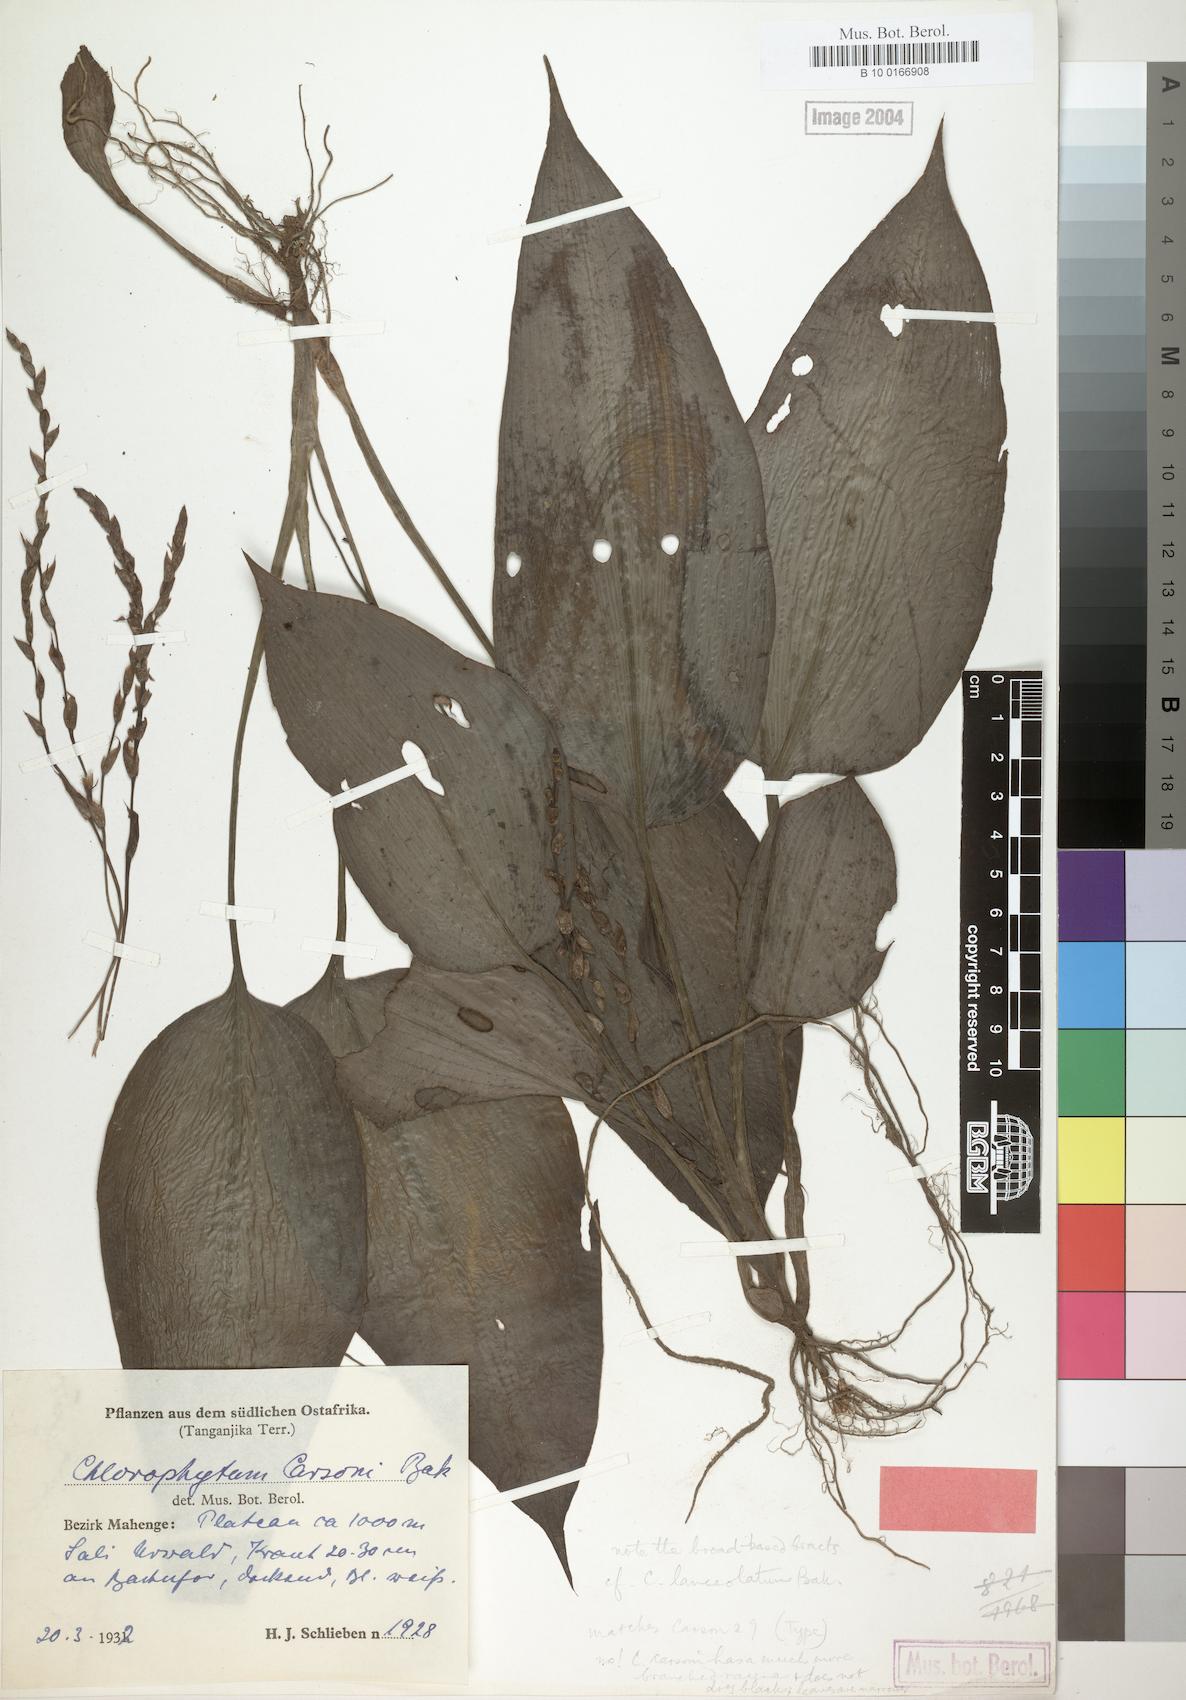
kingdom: Plantae
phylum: Tracheophyta
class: Liliopsida
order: Asparagales
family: Asparagaceae
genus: Chlorophytum
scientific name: Chlorophytum lancifolium
